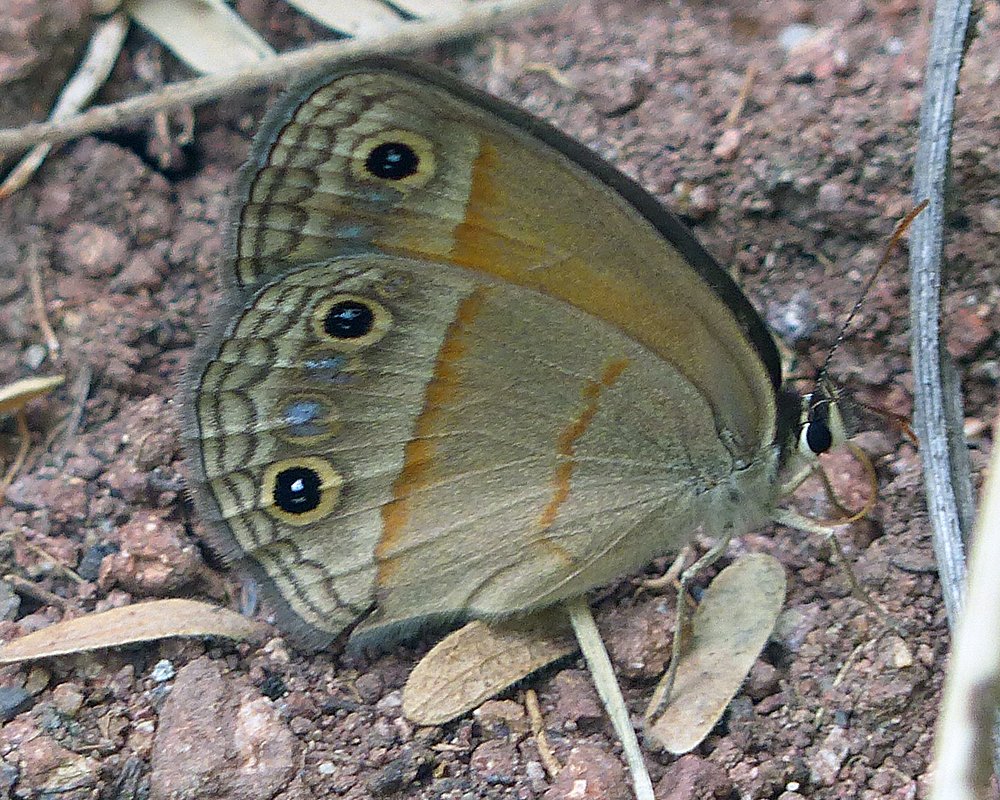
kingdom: Animalia
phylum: Arthropoda
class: Insecta
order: Lepidoptera
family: Nymphalidae
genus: Euptychia
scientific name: Euptychia rubricata
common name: Red Satyr
